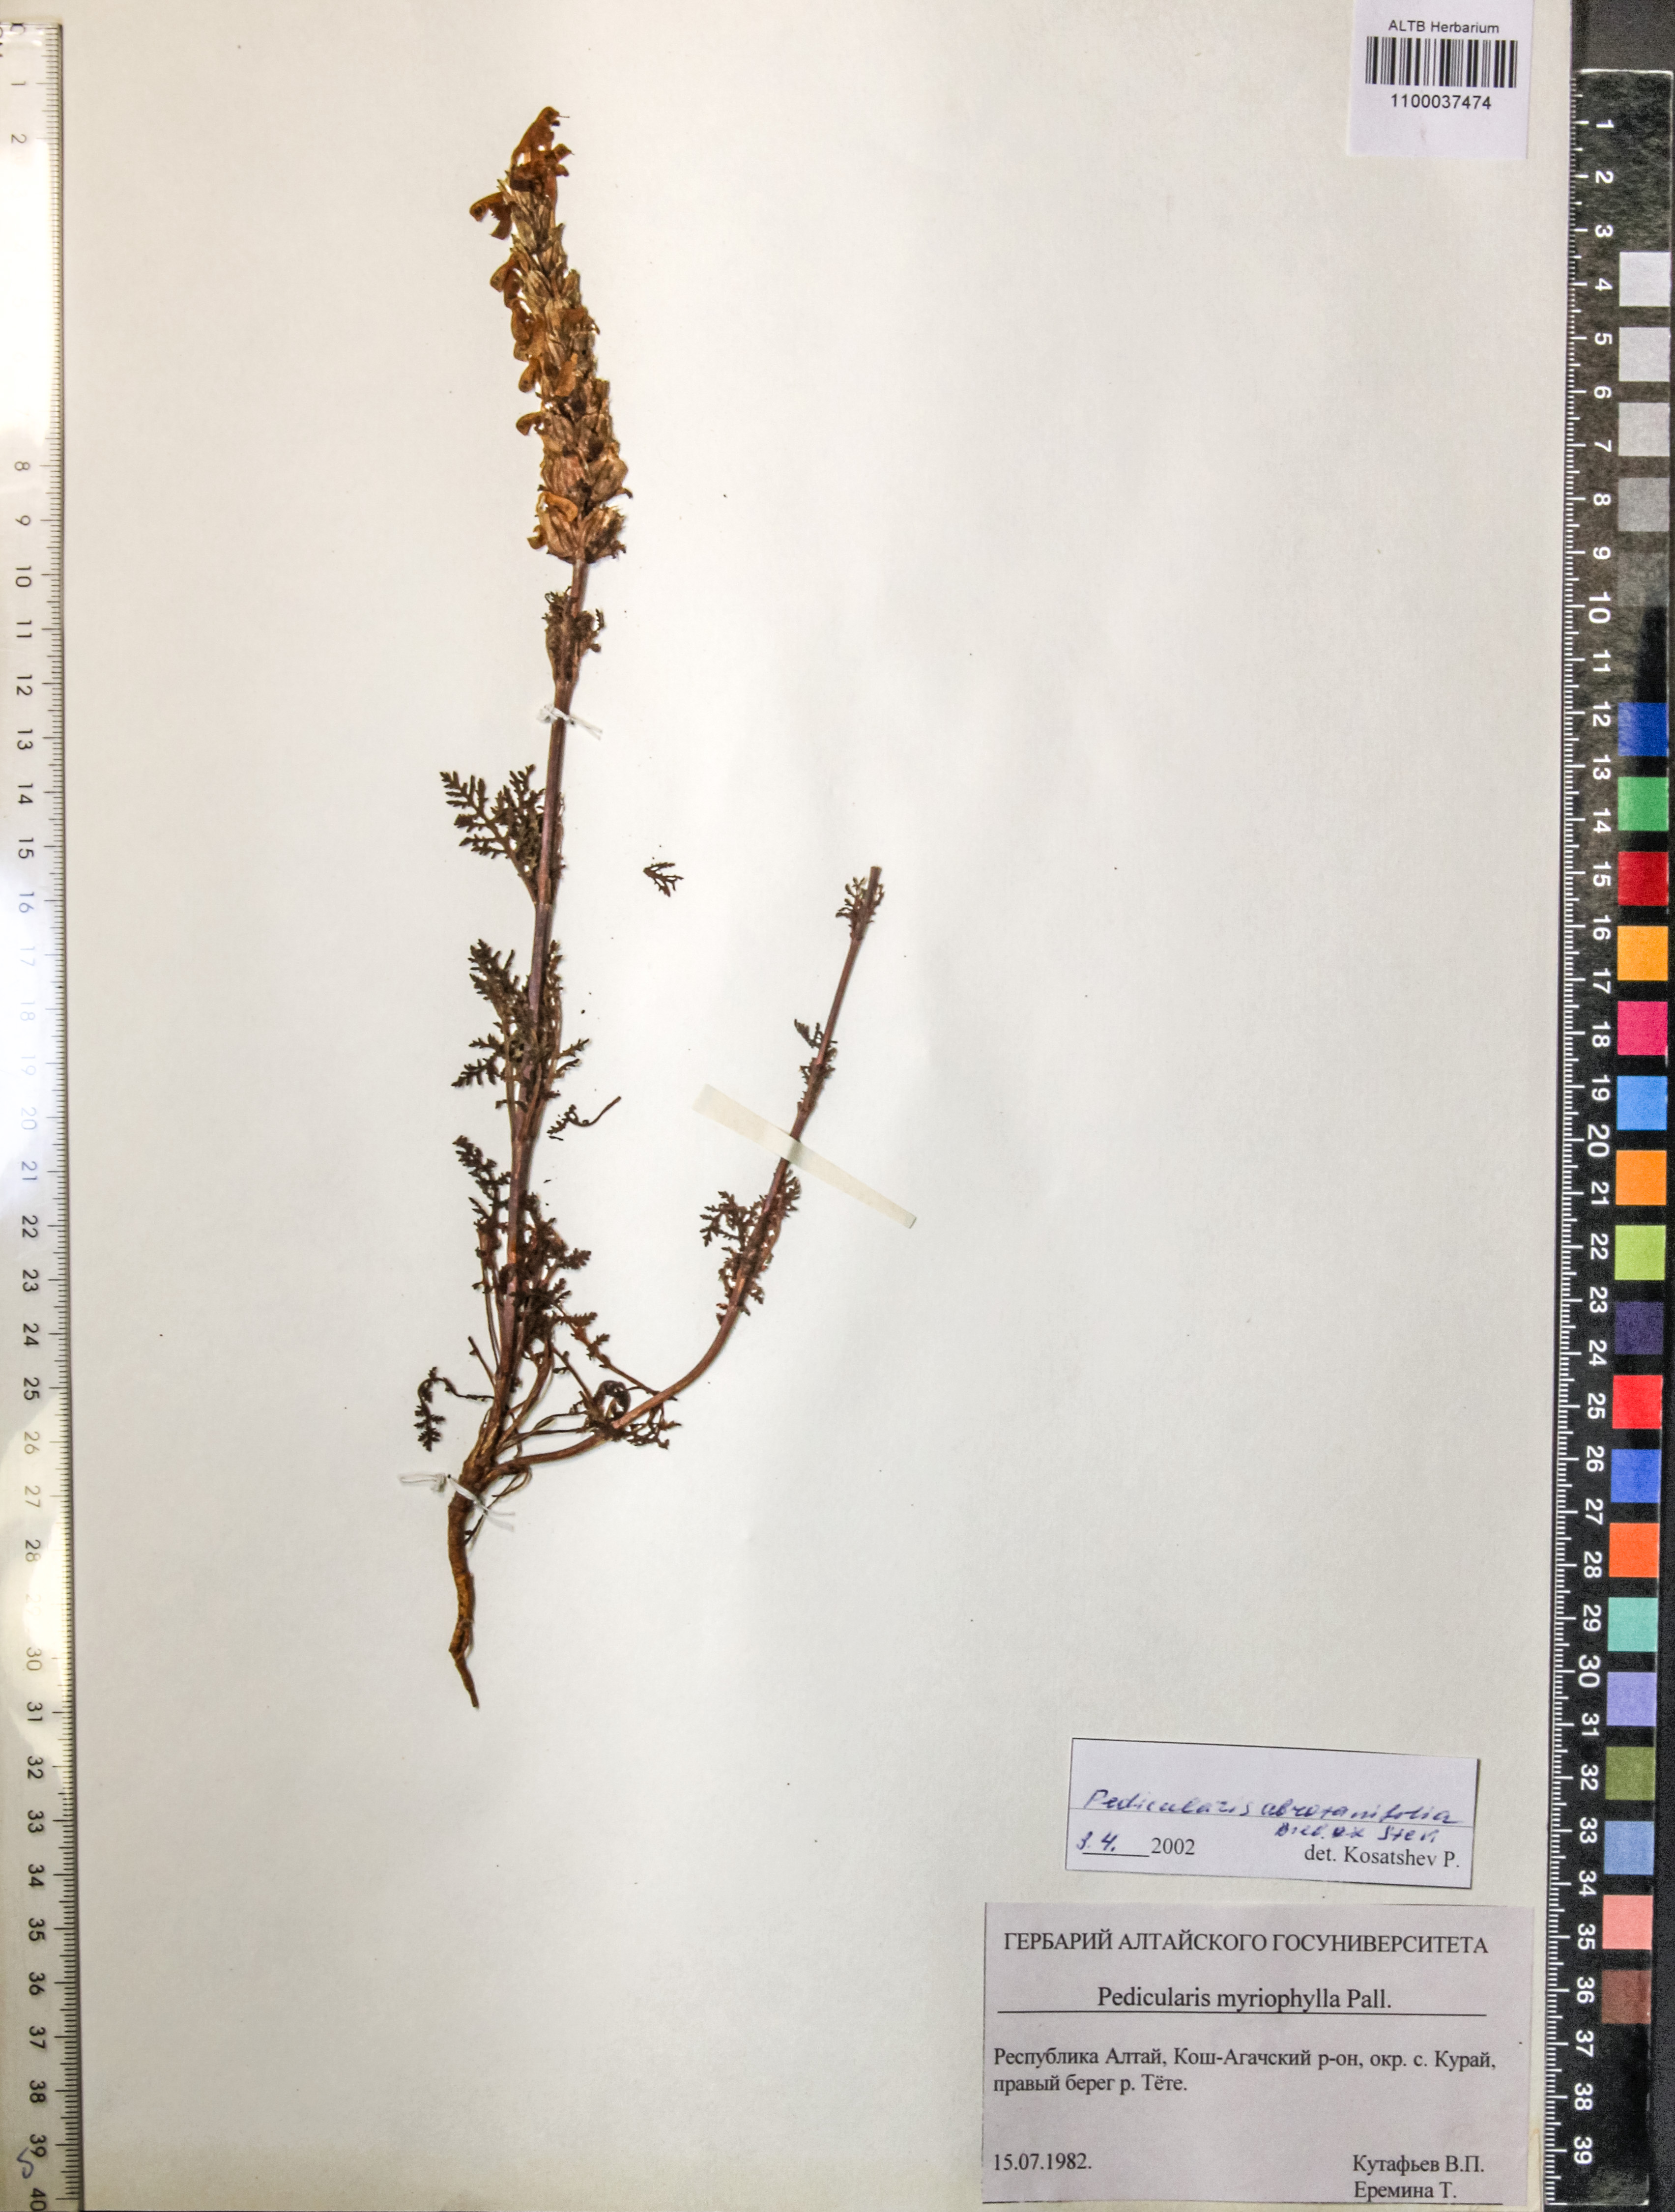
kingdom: Plantae
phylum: Tracheophyta
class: Magnoliopsida
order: Lamiales
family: Orobanchaceae
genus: Pedicularis
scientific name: Pedicularis abrotanifolia
